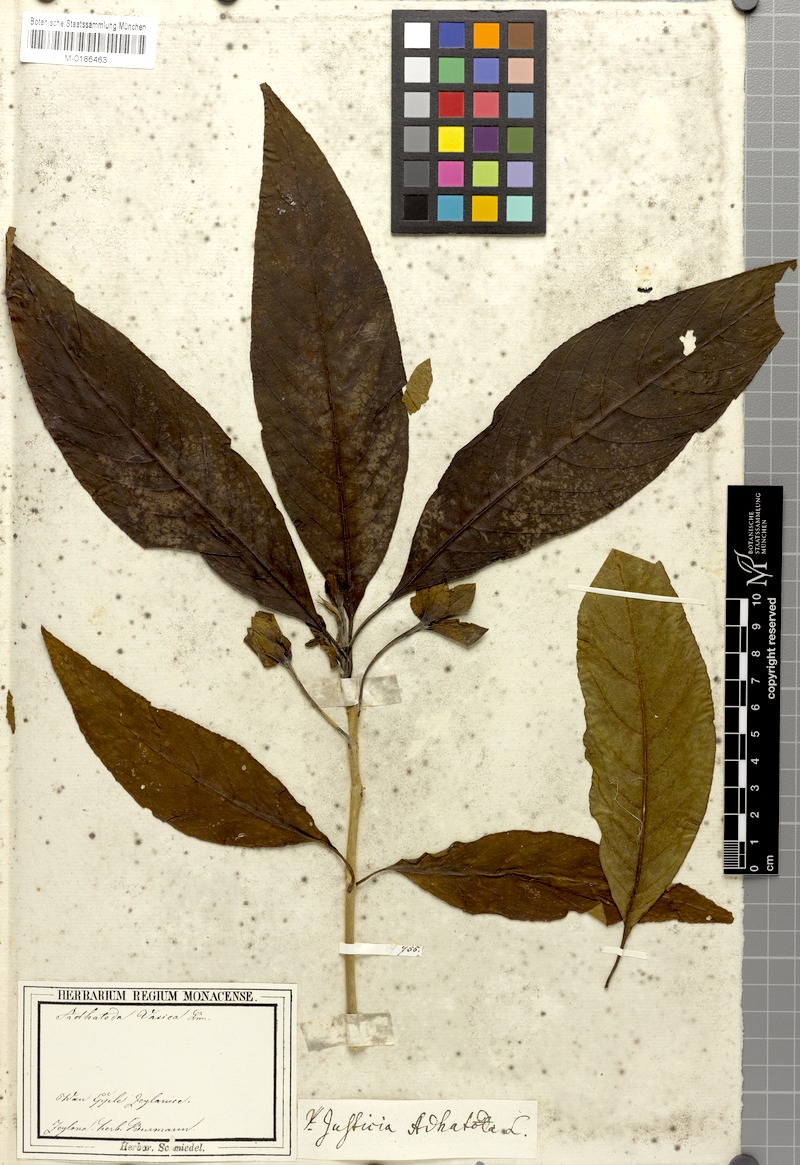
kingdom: Plantae
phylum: Tracheophyta
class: Magnoliopsida
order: Lamiales
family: Acanthaceae
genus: Justicia
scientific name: Justicia adhatoda
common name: Malabar nut
